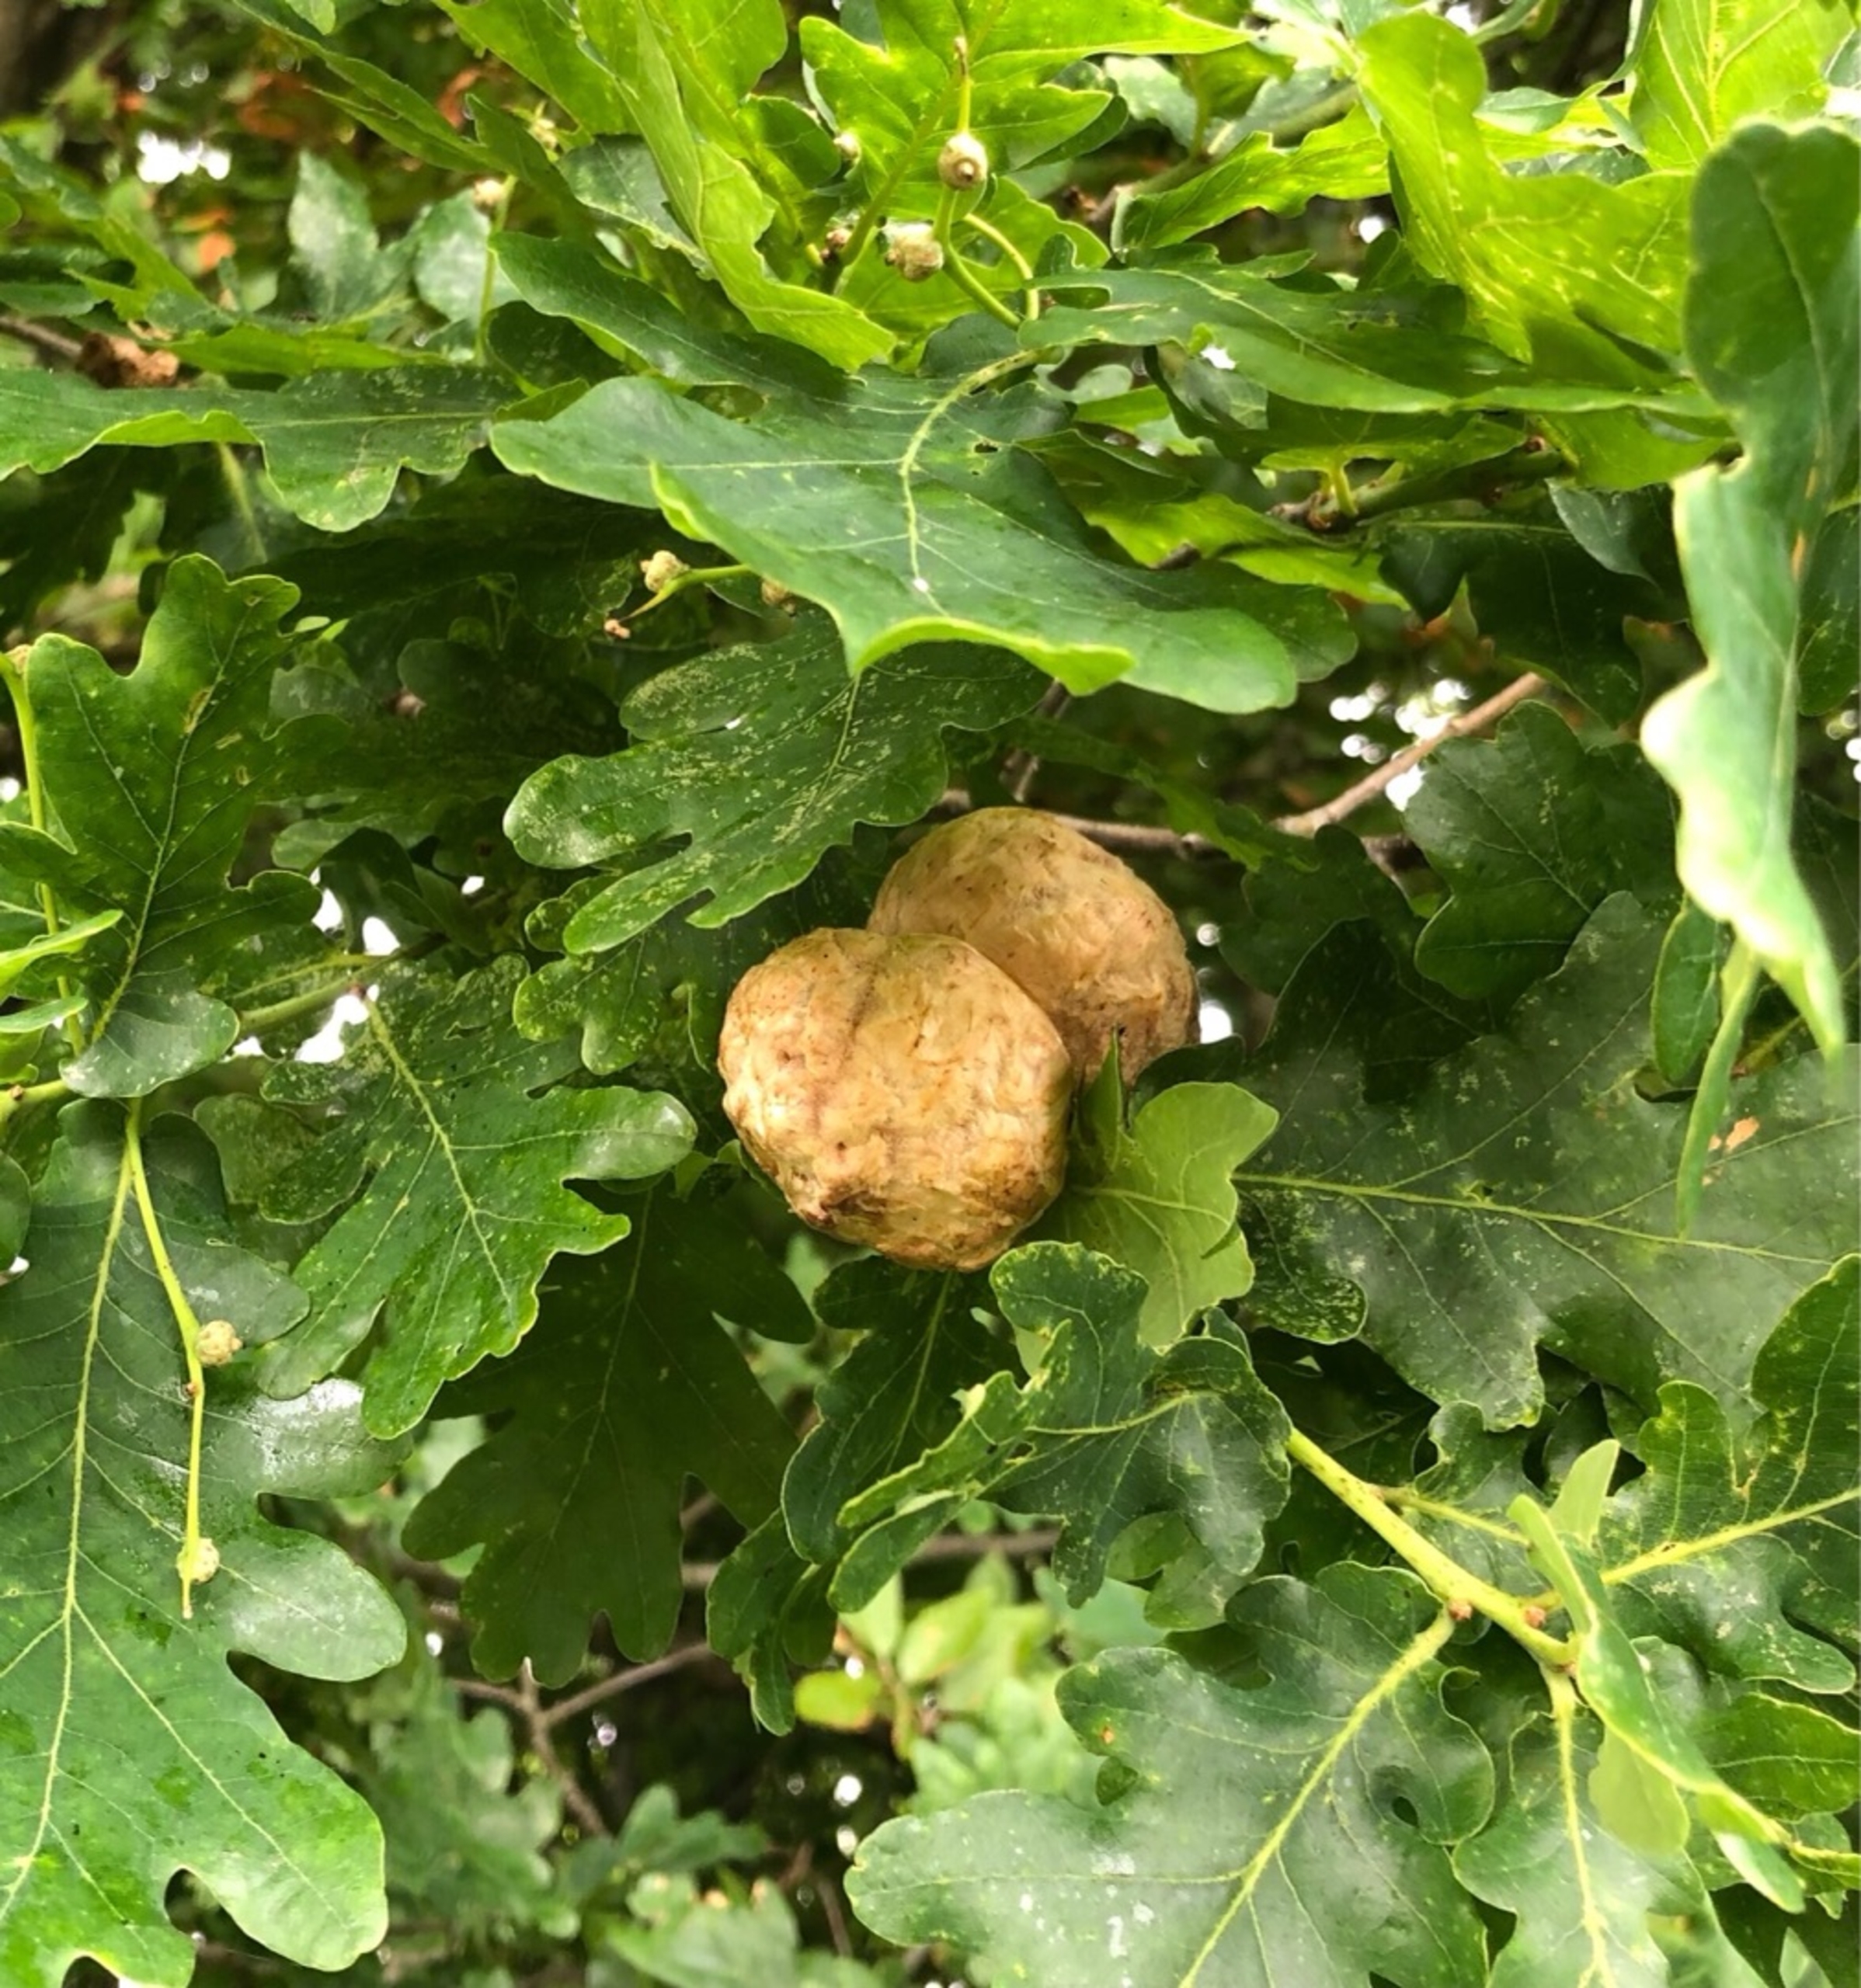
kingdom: Animalia
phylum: Arthropoda
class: Insecta
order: Hymenoptera
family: Cynipidae
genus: Biorhiza
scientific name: Biorhiza pallida
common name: Ege-kartoffelgalhveps
